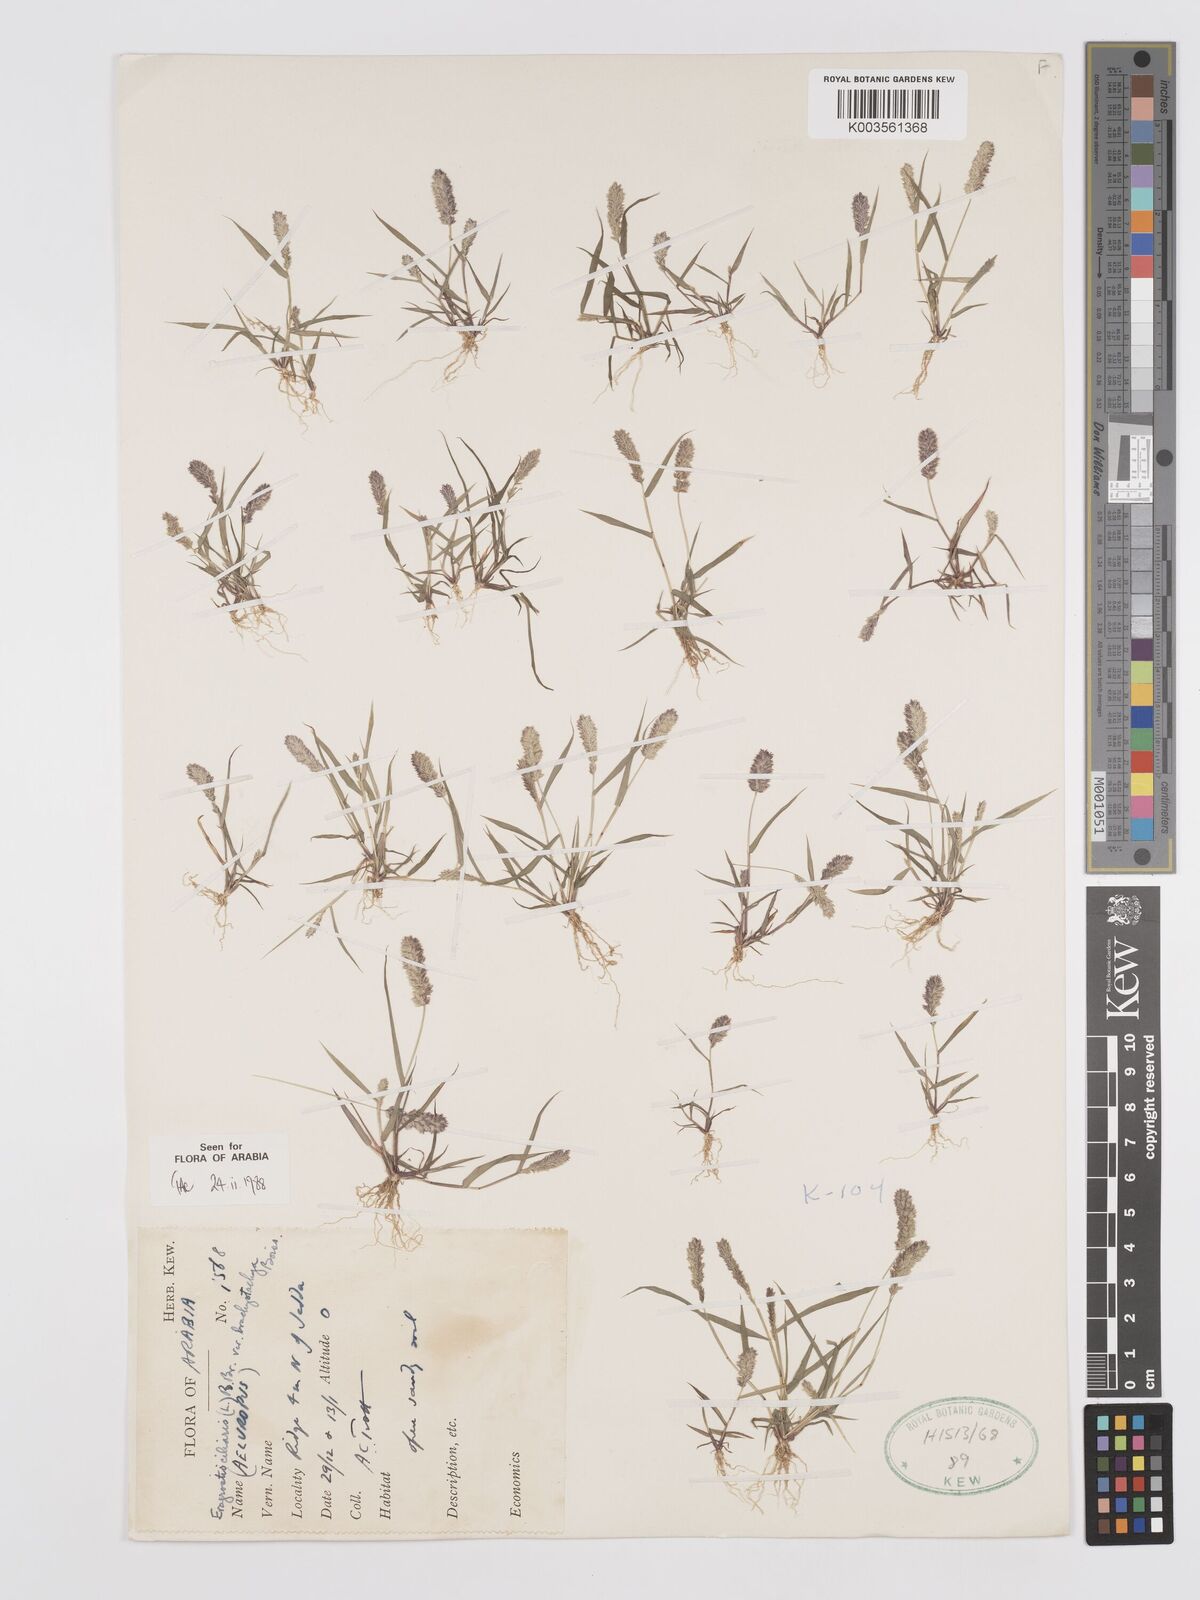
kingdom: Plantae
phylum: Tracheophyta
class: Liliopsida
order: Poales
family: Poaceae
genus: Eragrostis
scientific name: Eragrostis ciliaris
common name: Gophertail lovegrass
